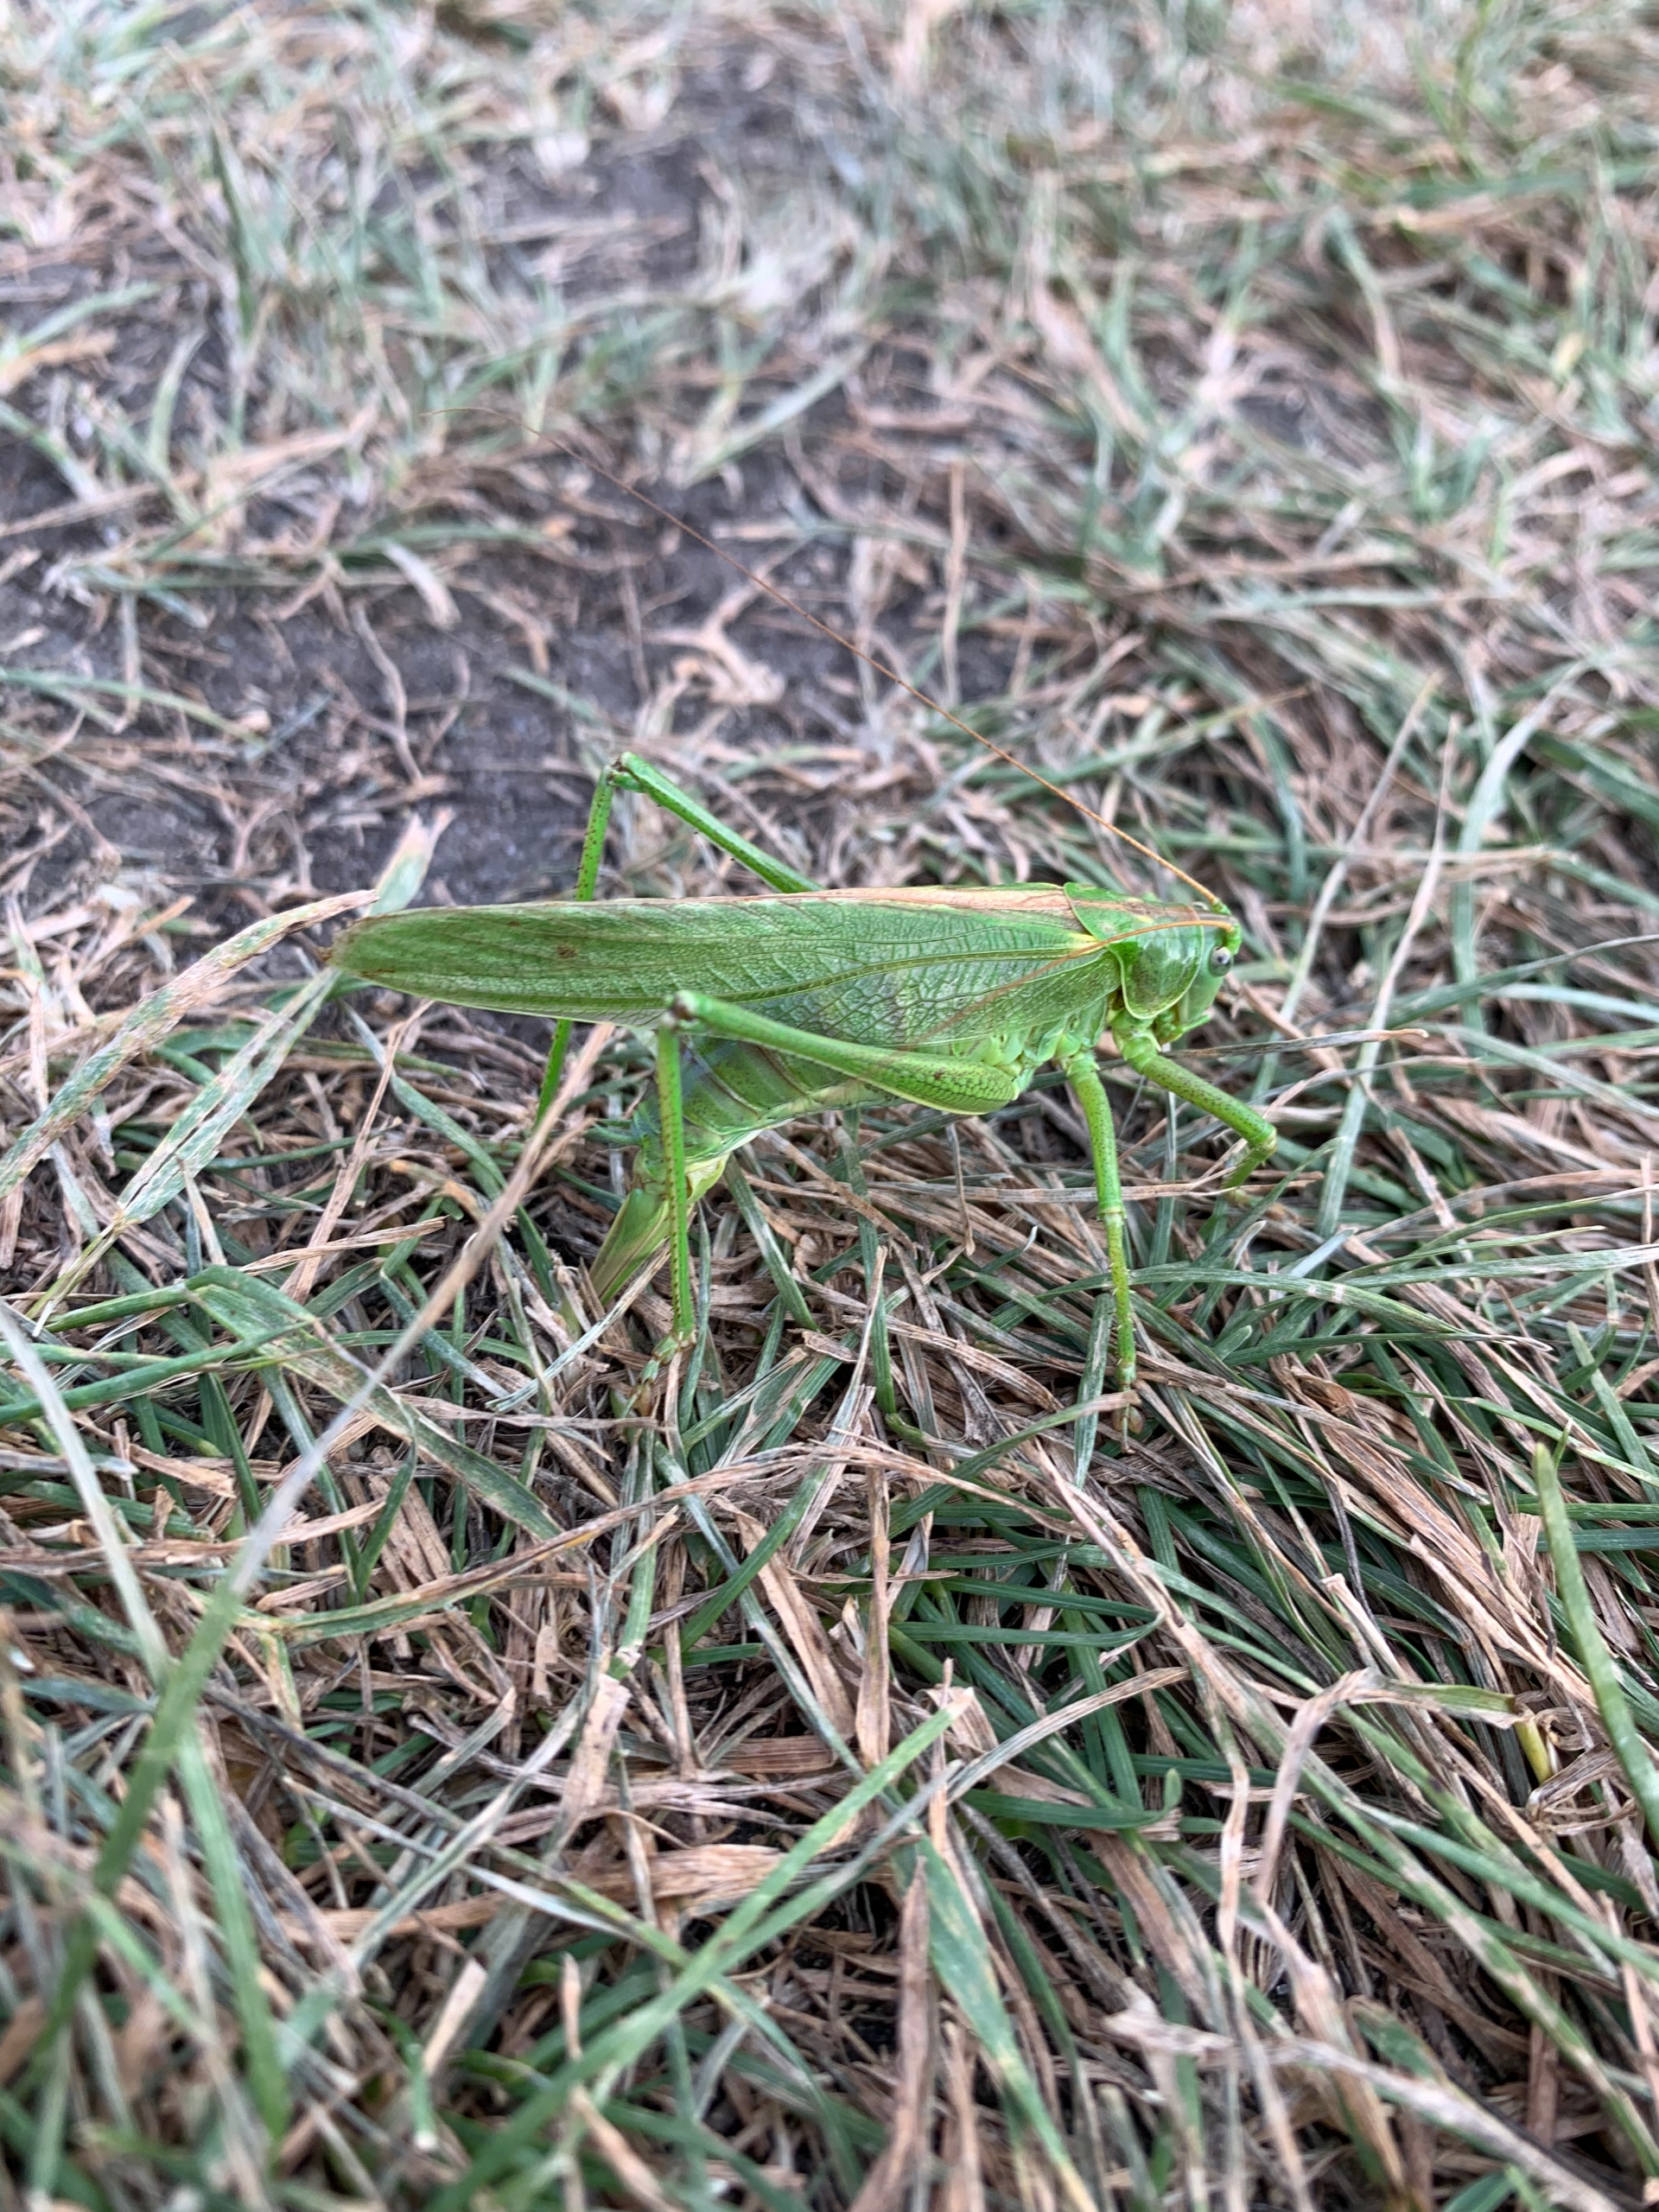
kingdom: Animalia
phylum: Arthropoda
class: Insecta
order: Orthoptera
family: Tettigoniidae
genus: Tettigonia
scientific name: Tettigonia viridissima
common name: Stor grøn løvgræshoppe
